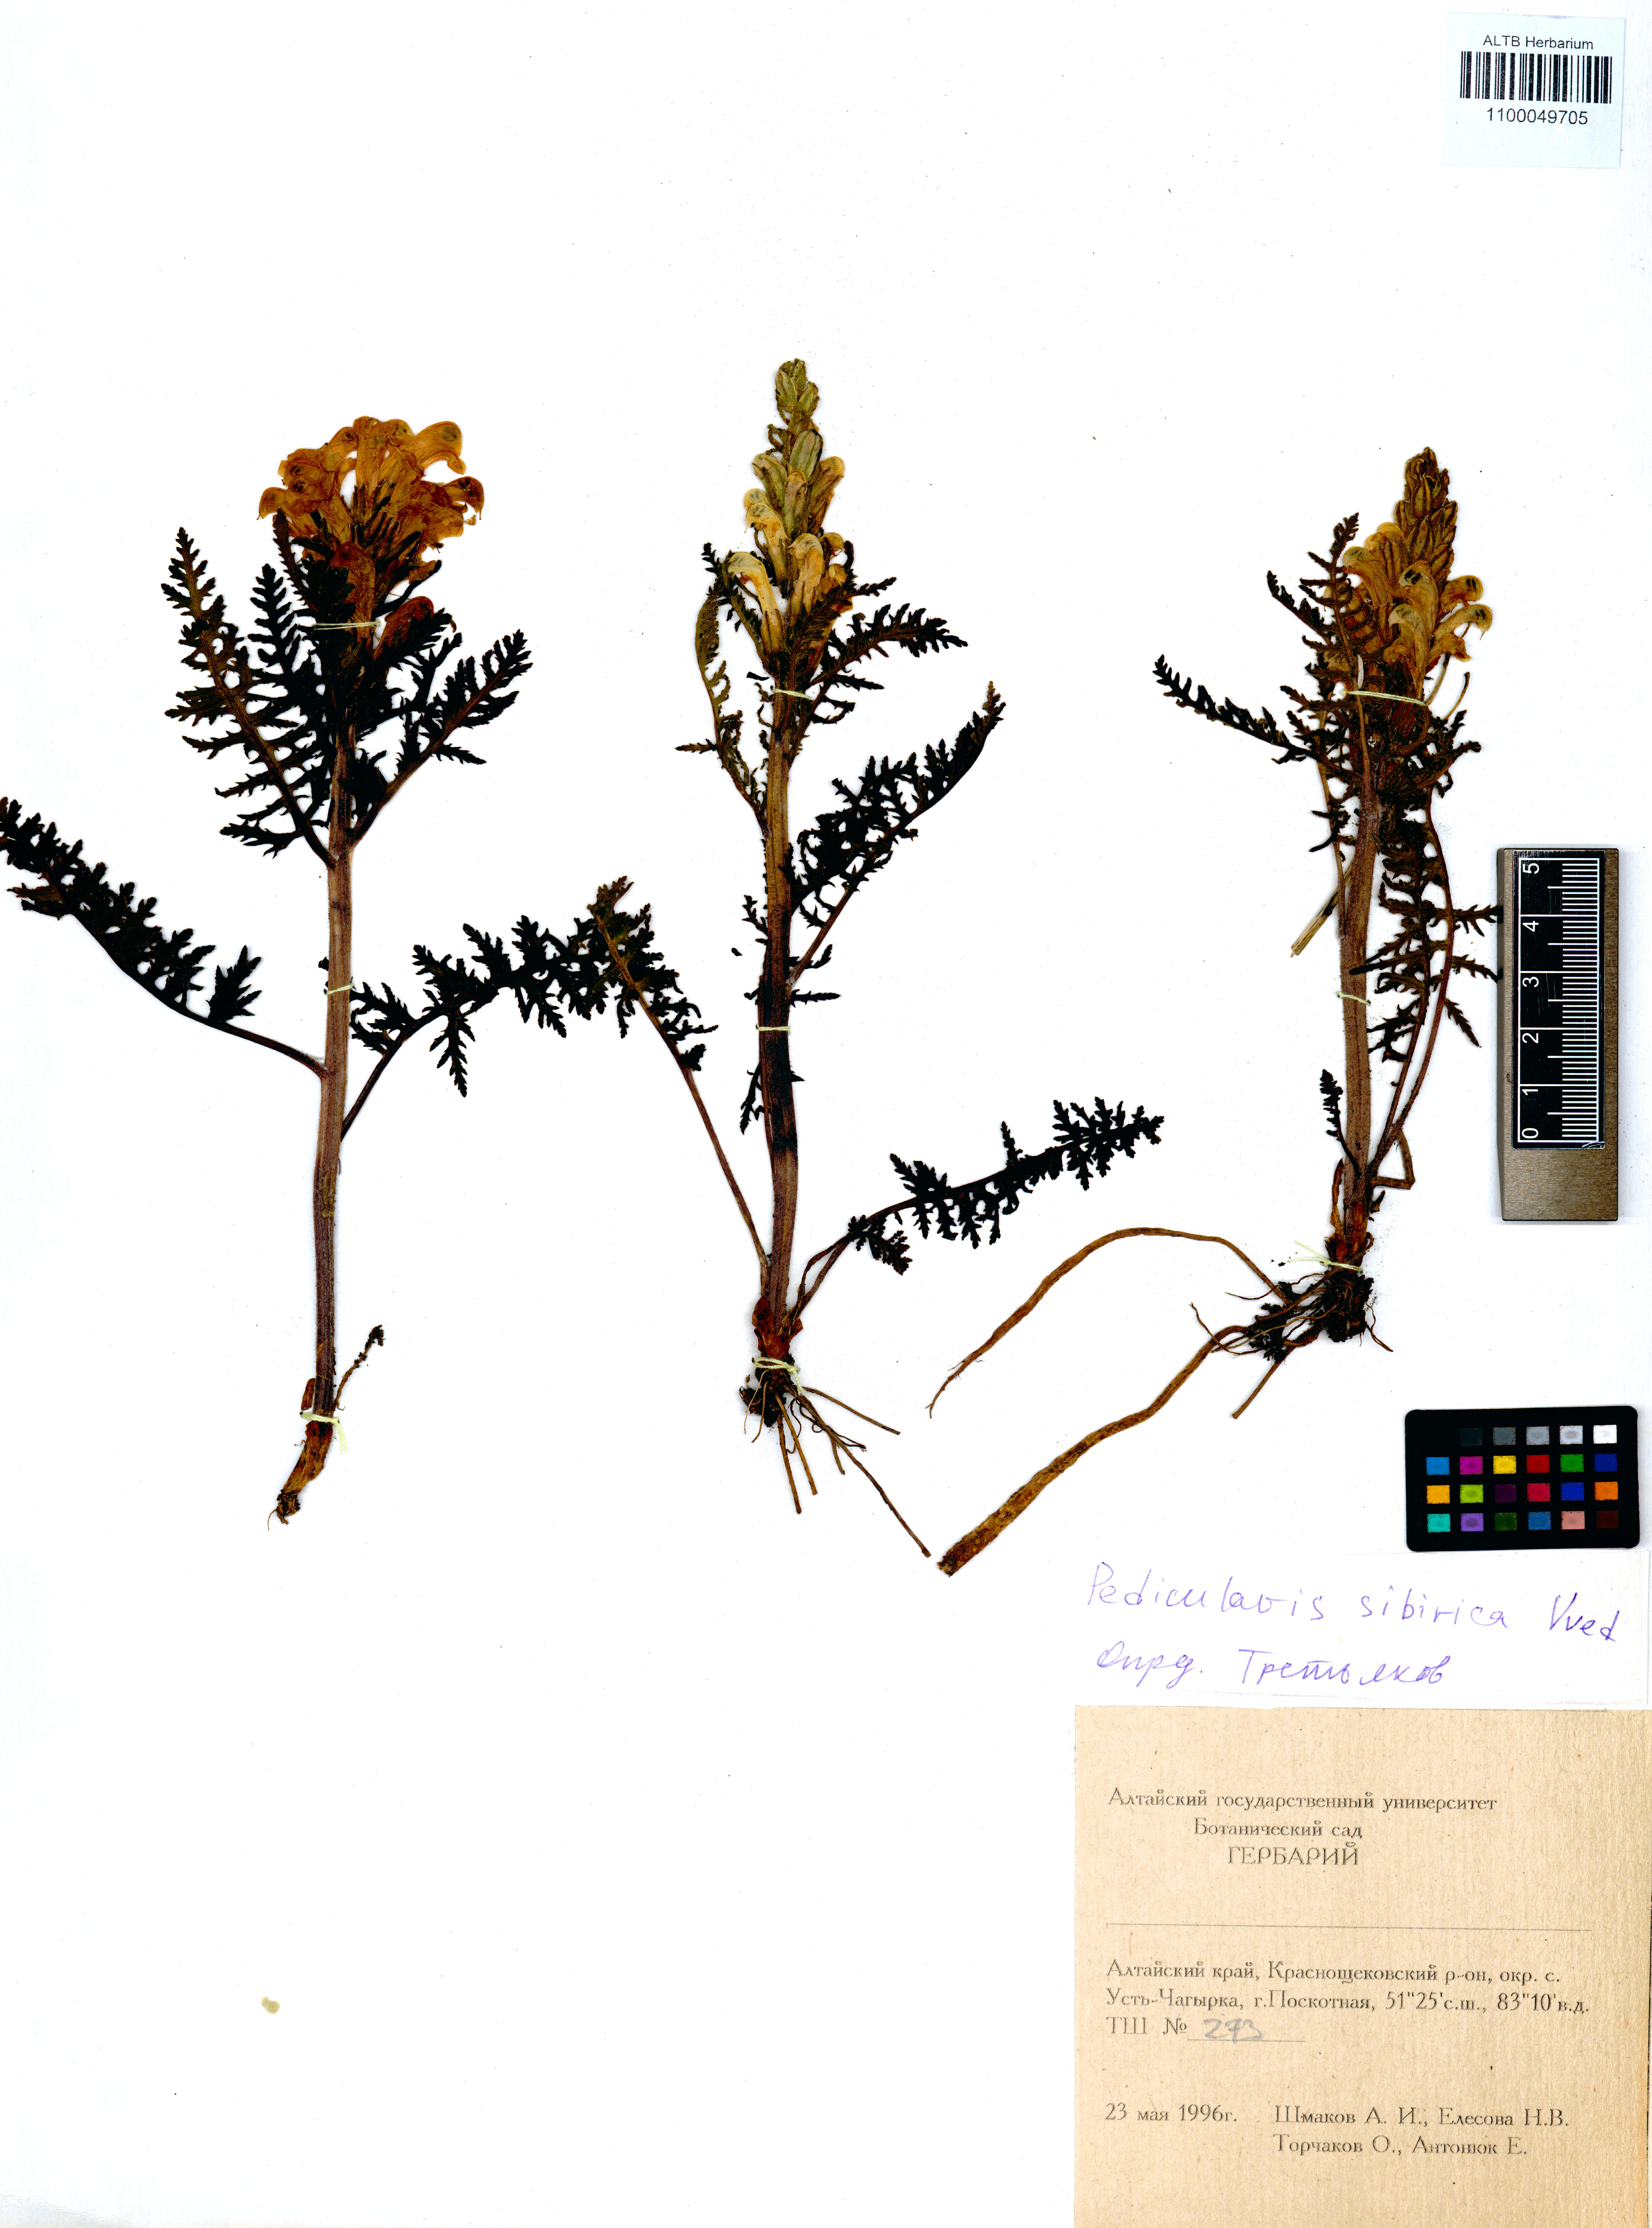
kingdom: Plantae
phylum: Tracheophyta
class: Magnoliopsida
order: Lamiales
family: Orobanchaceae
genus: Pedicularis
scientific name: Pedicularis sibirica
